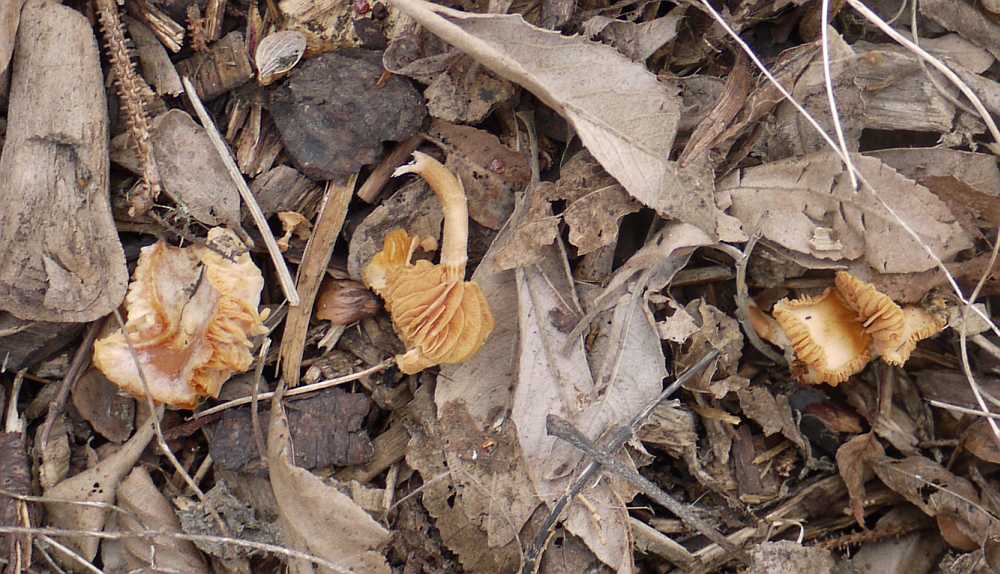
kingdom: Fungi
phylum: Basidiomycota
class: Agaricomycetes
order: Agaricales
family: Tubariaceae
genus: Tubaria
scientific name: Tubaria furfuracea
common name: kliddet fnughat
